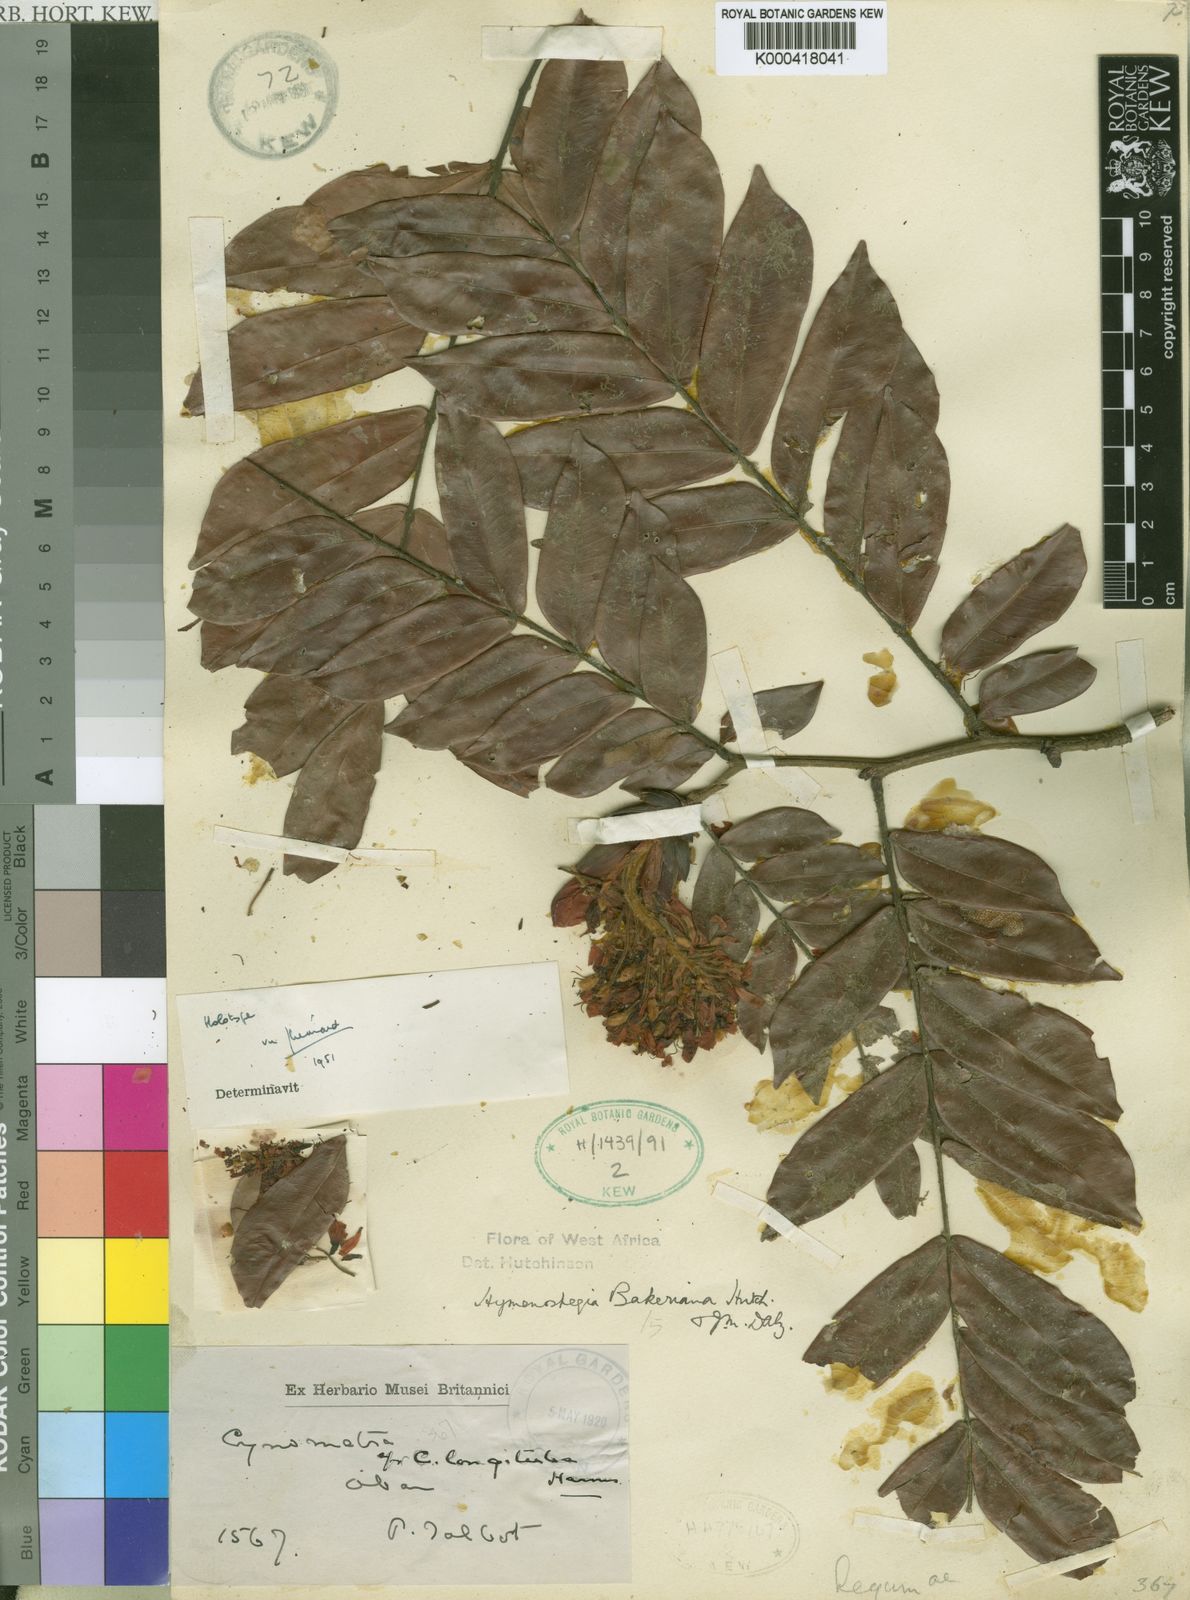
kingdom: Plantae
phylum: Tracheophyta
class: Magnoliopsida
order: Fabales
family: Fabaceae
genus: Hymenostegia
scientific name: Hymenostegia bakeriana
